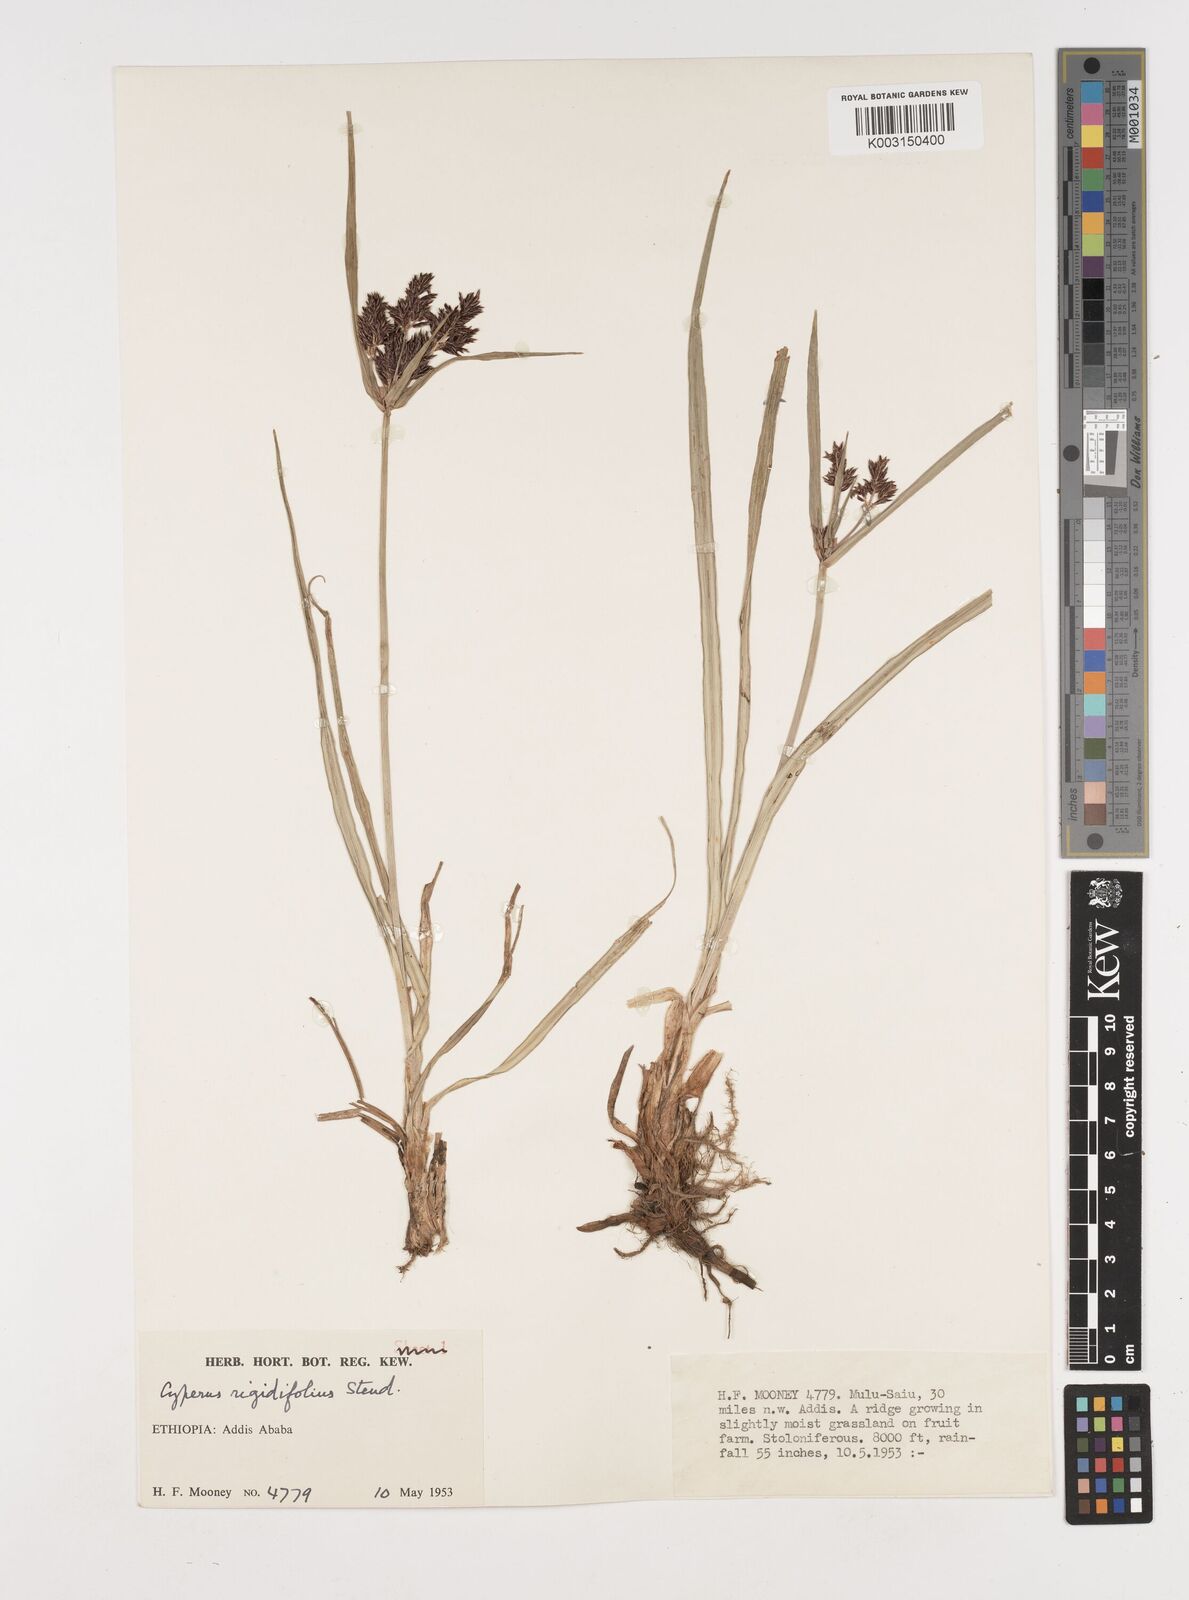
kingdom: Plantae
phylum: Tracheophyta
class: Liliopsida
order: Poales
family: Cyperaceae
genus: Cyperus
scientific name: Cyperus rigidifolius
